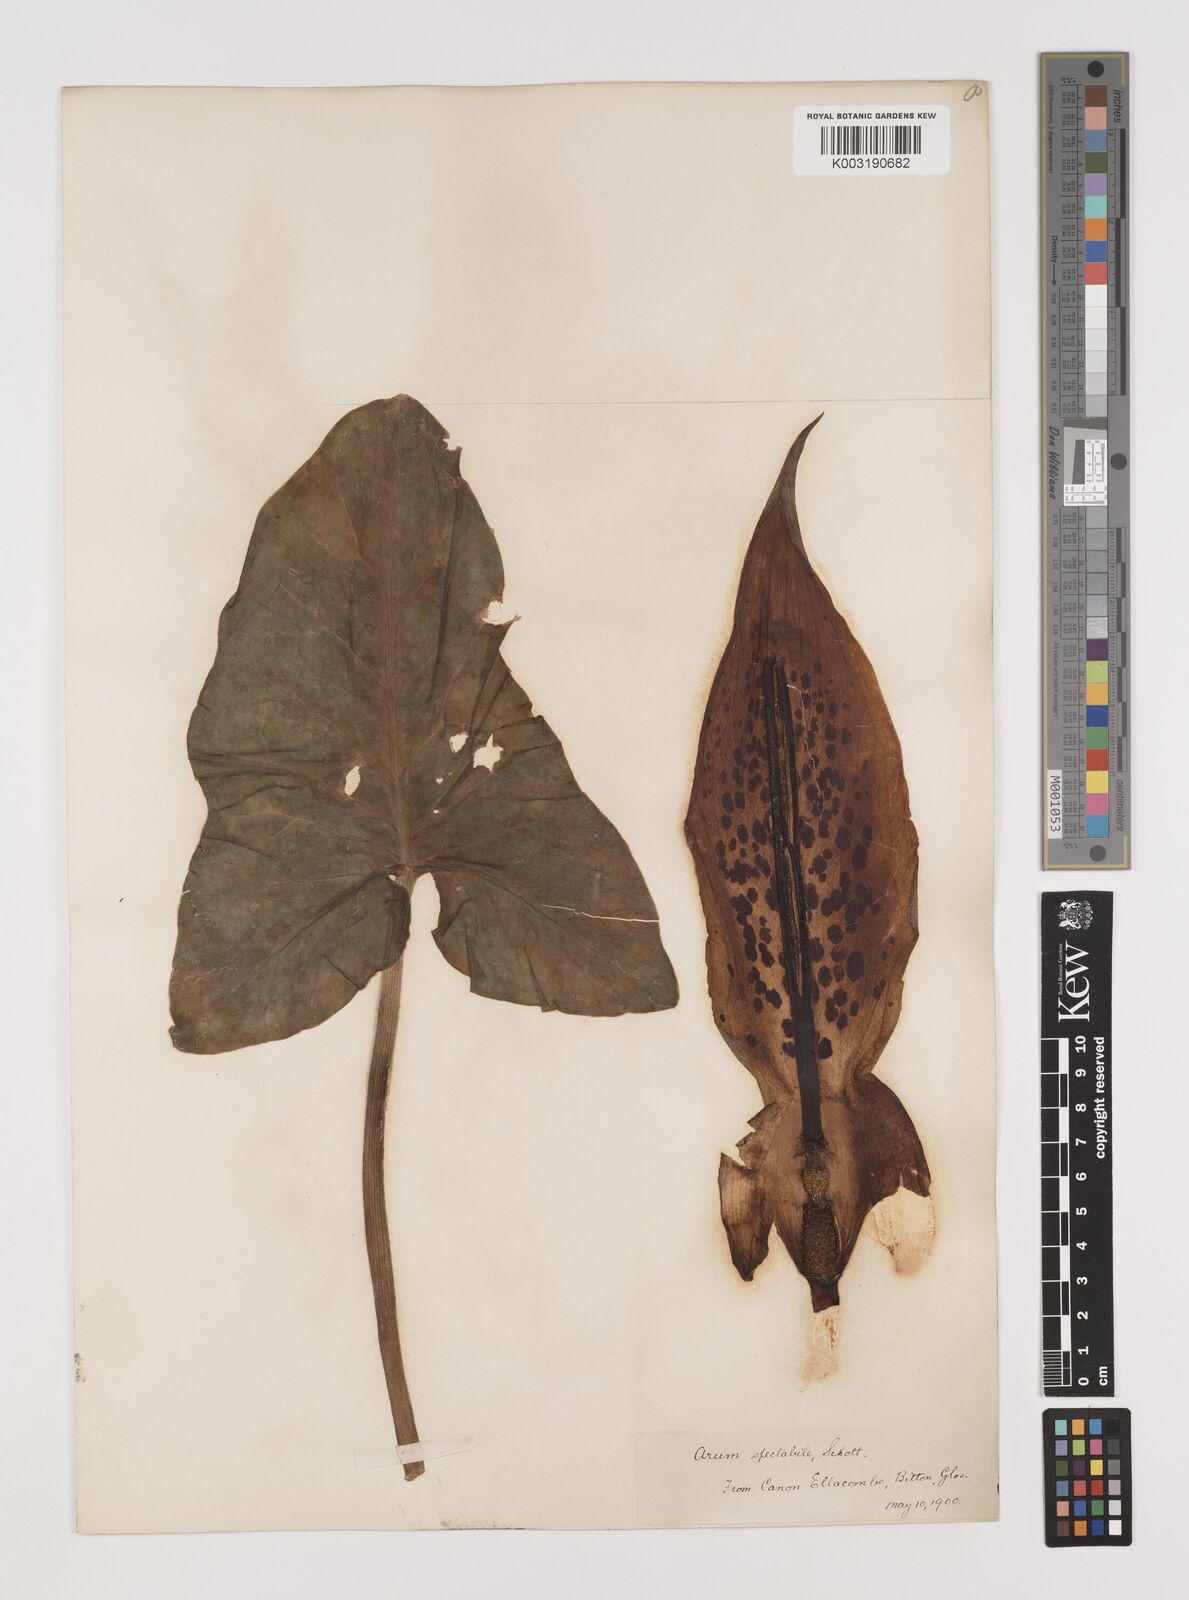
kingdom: Plantae
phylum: Tracheophyta
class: Liliopsida
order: Alismatales
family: Araceae
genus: Arum
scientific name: Arum dioscoridis
